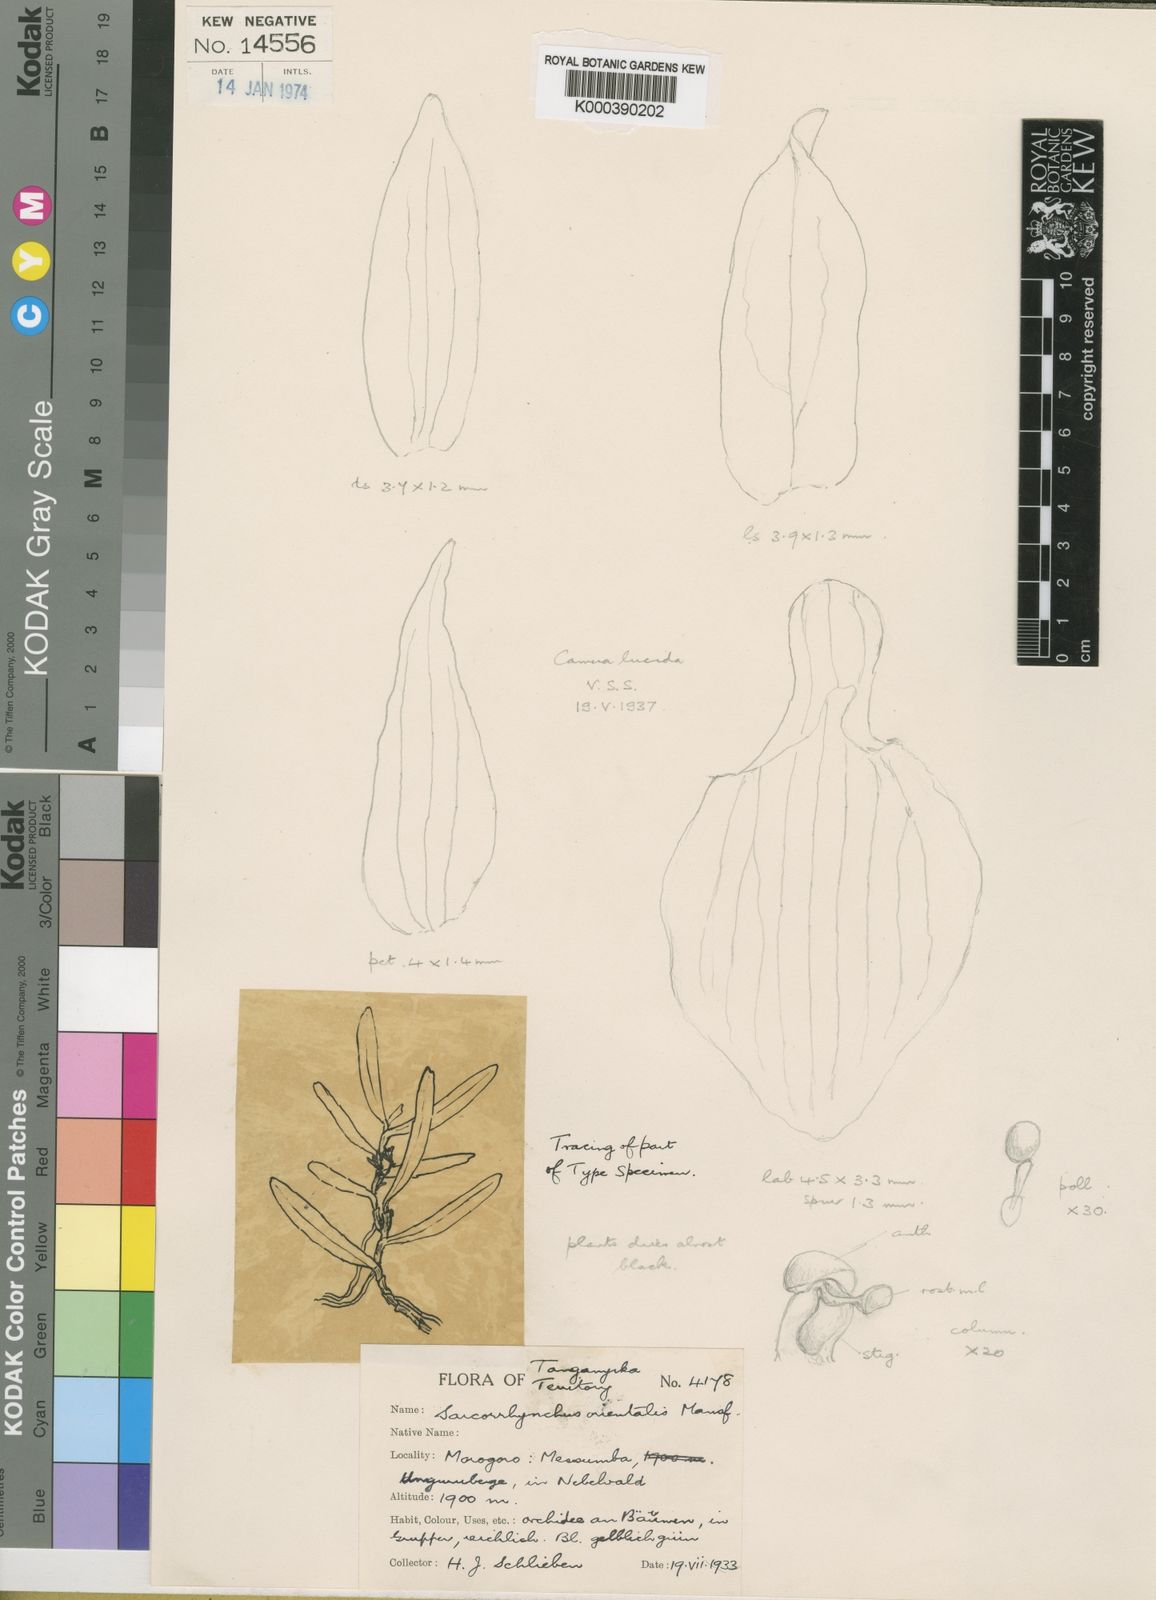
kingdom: Plantae
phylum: Tracheophyta
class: Liliopsida
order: Asparagales
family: Orchidaceae
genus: Rhipidoglossum
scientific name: Rhipidoglossum orientalis
